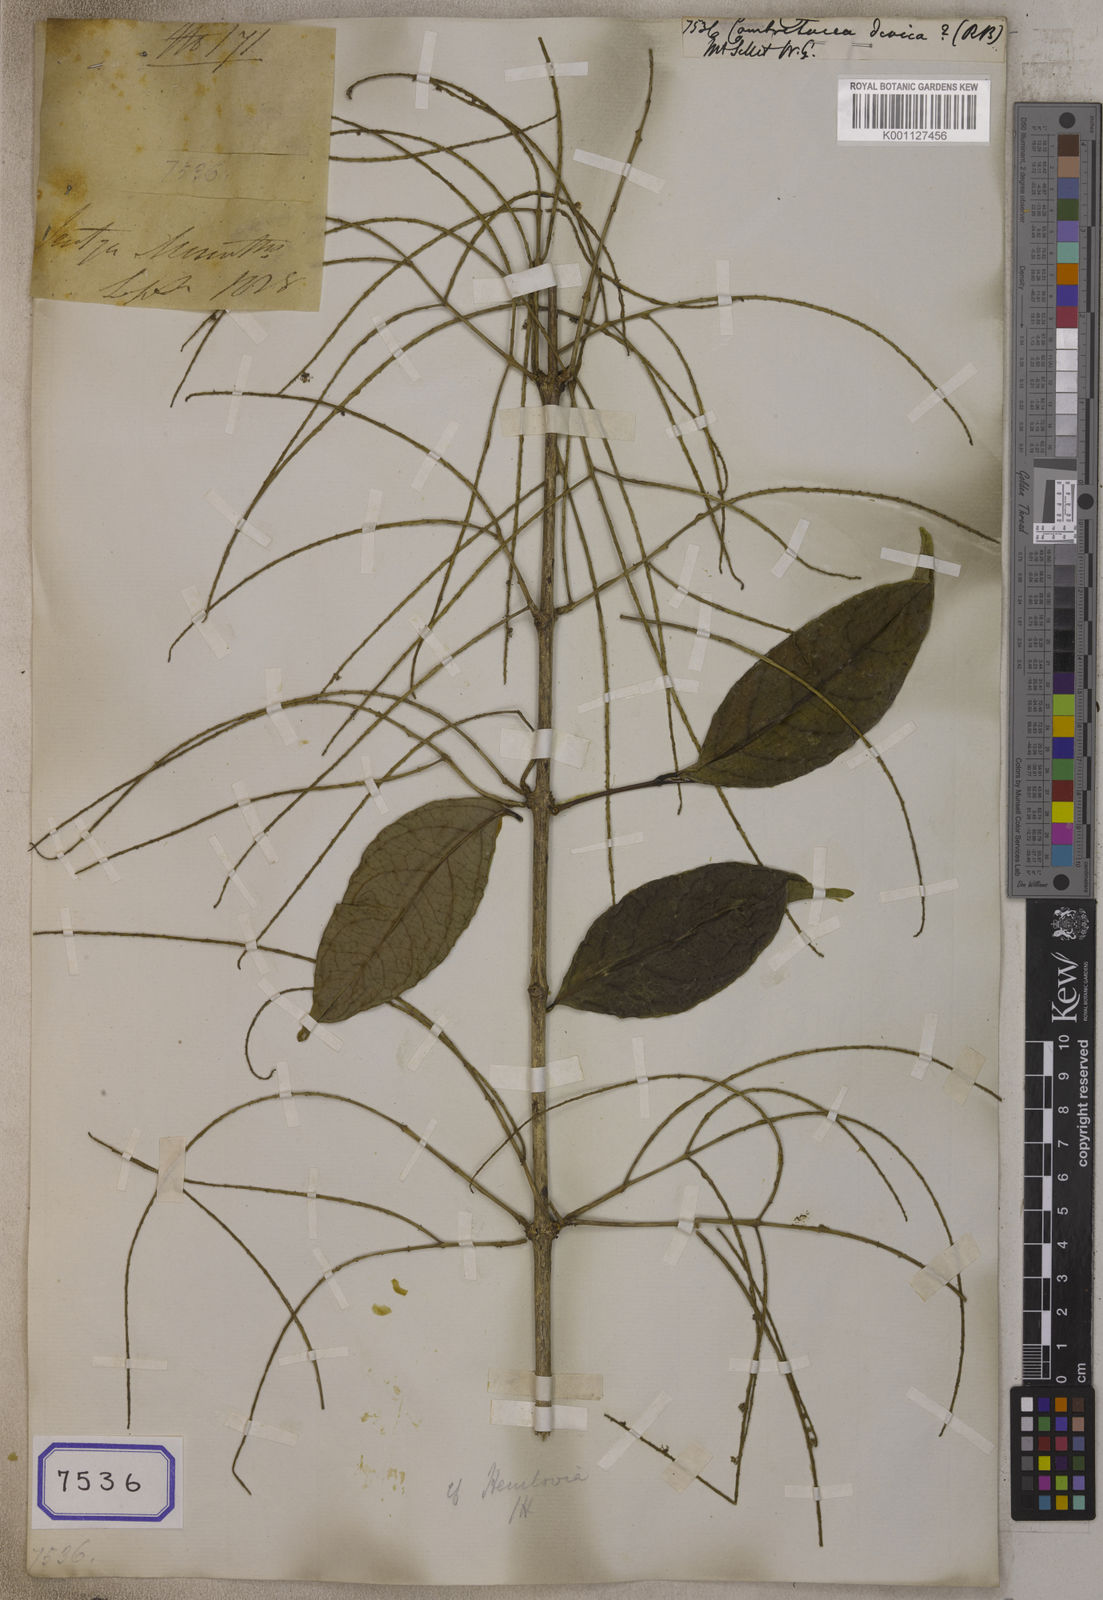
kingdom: Plantae
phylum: Tracheophyta
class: Magnoliopsida
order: Myrtales
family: Combretaceae
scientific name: Combretaceae
